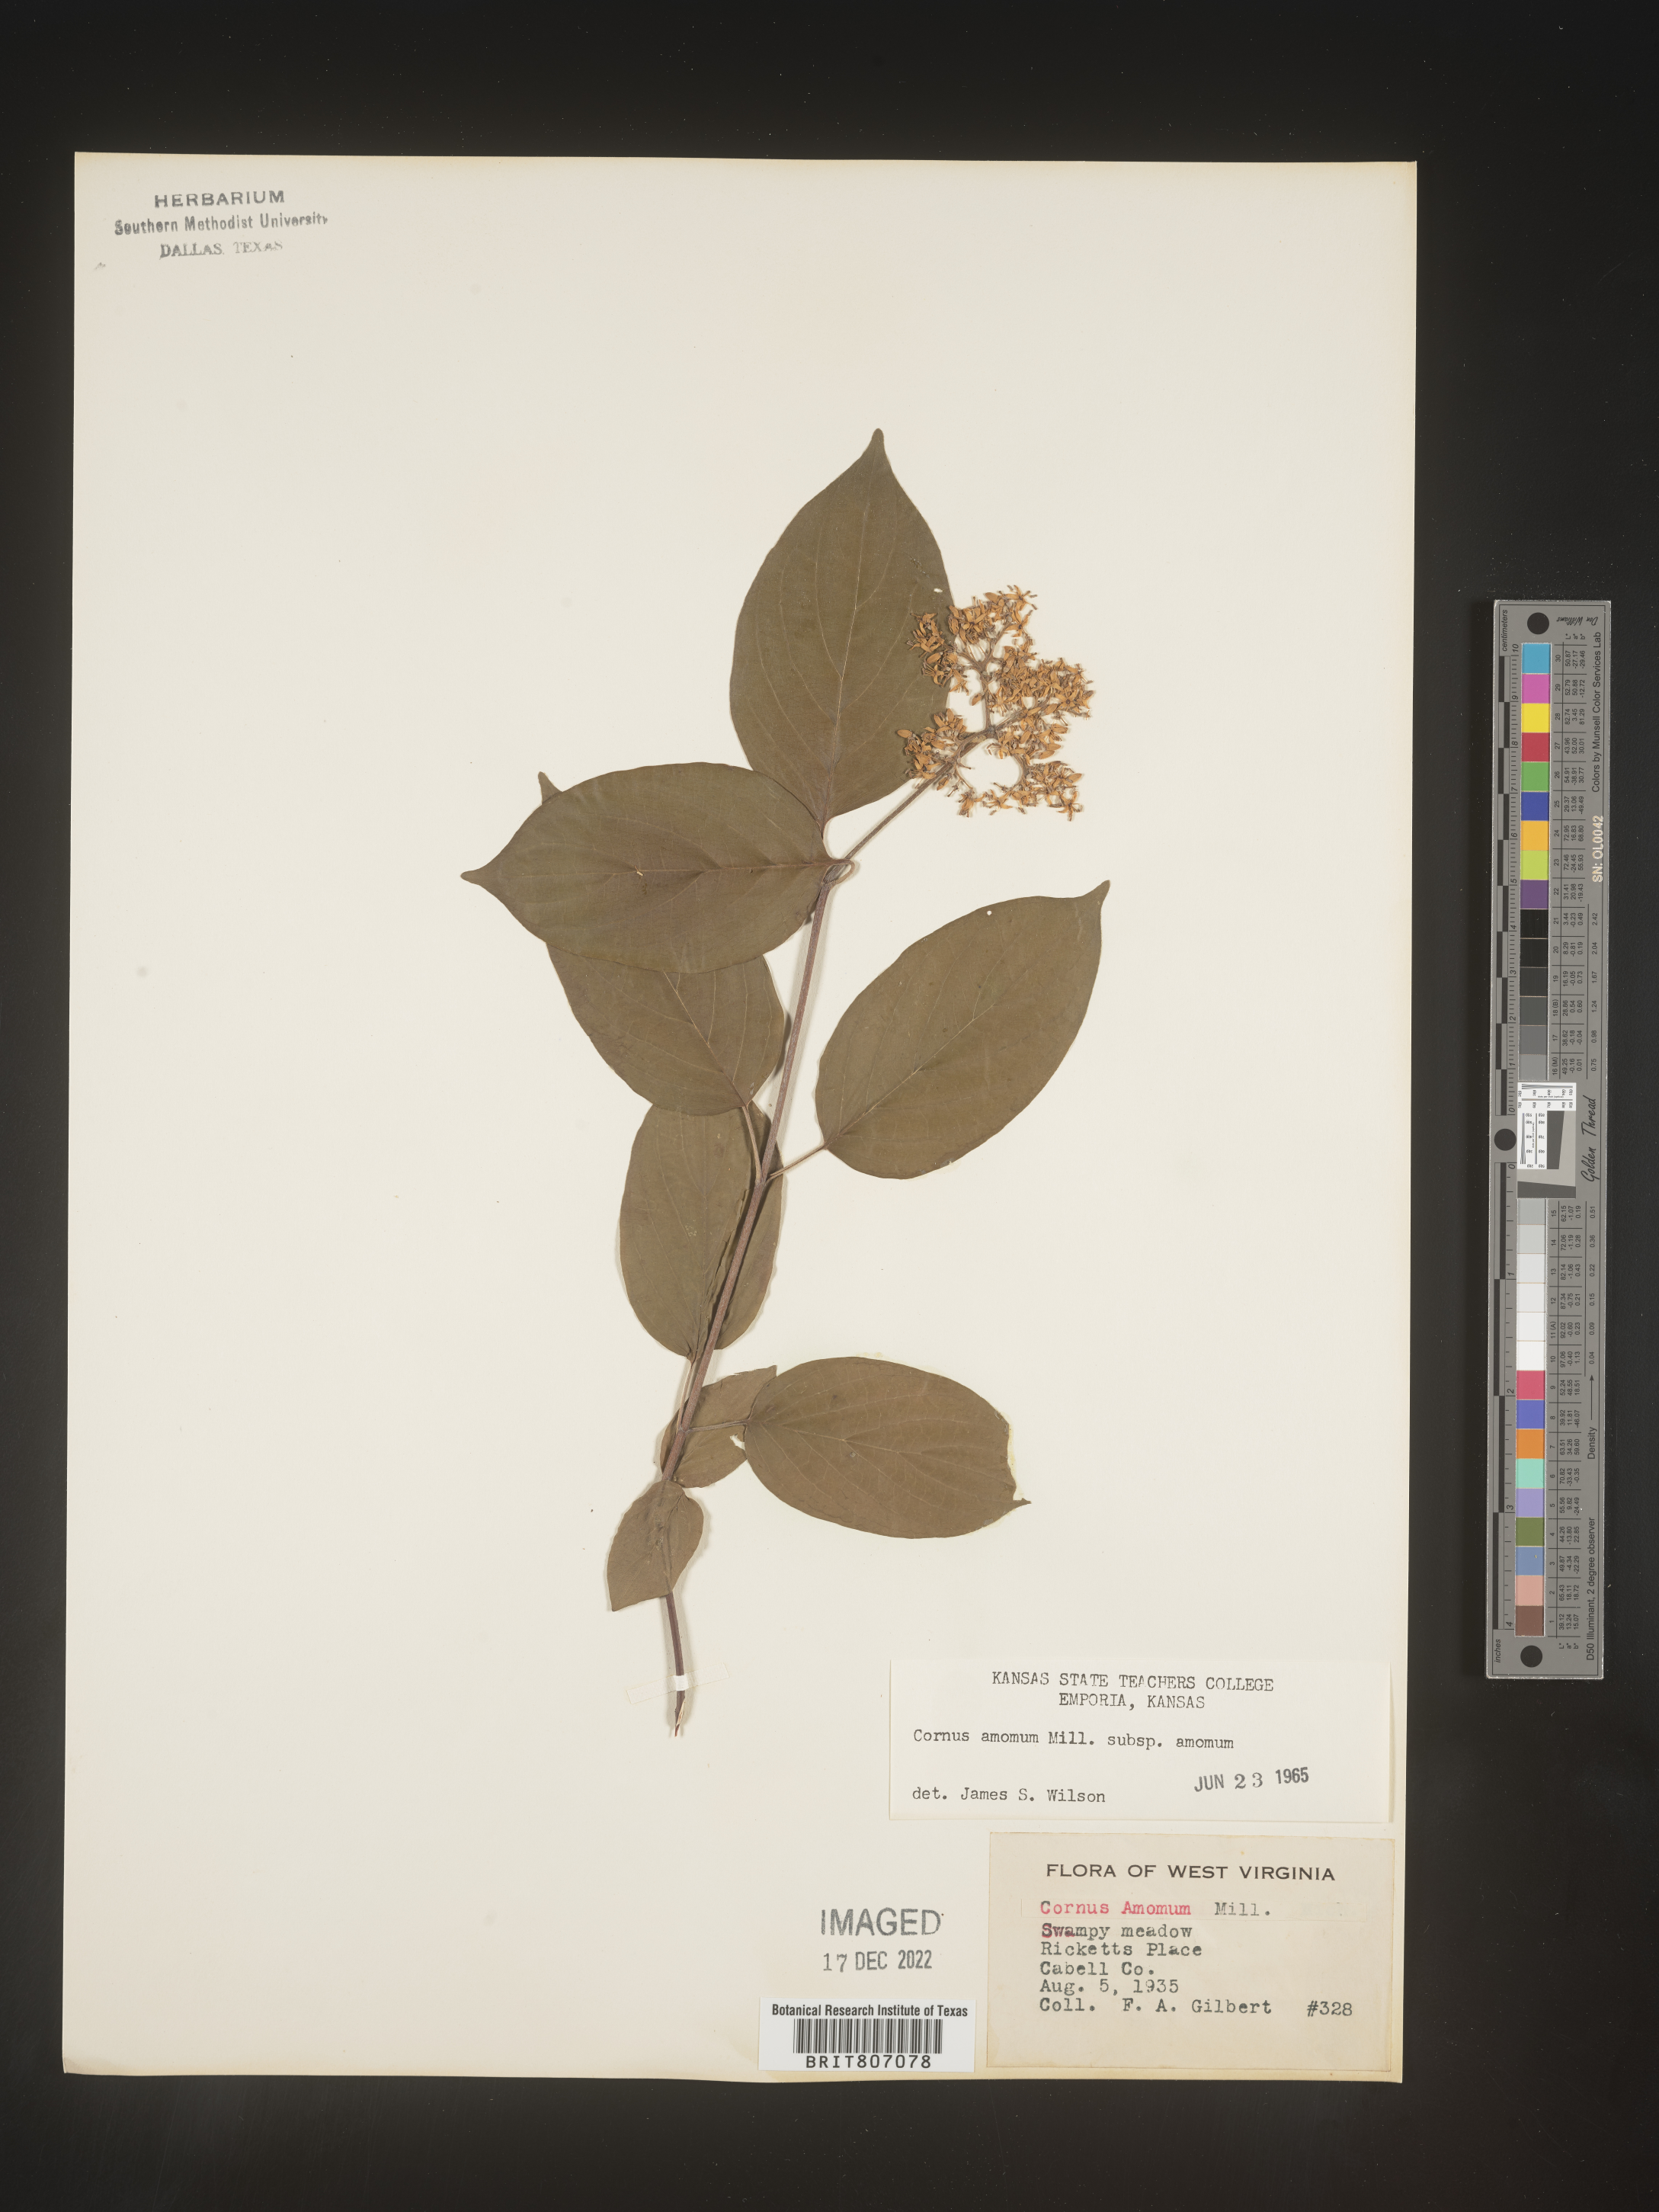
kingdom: Plantae
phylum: Tracheophyta
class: Magnoliopsida
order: Cornales
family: Cornaceae
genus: Cornus
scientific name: Cornus amomum
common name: Silky dogwood
